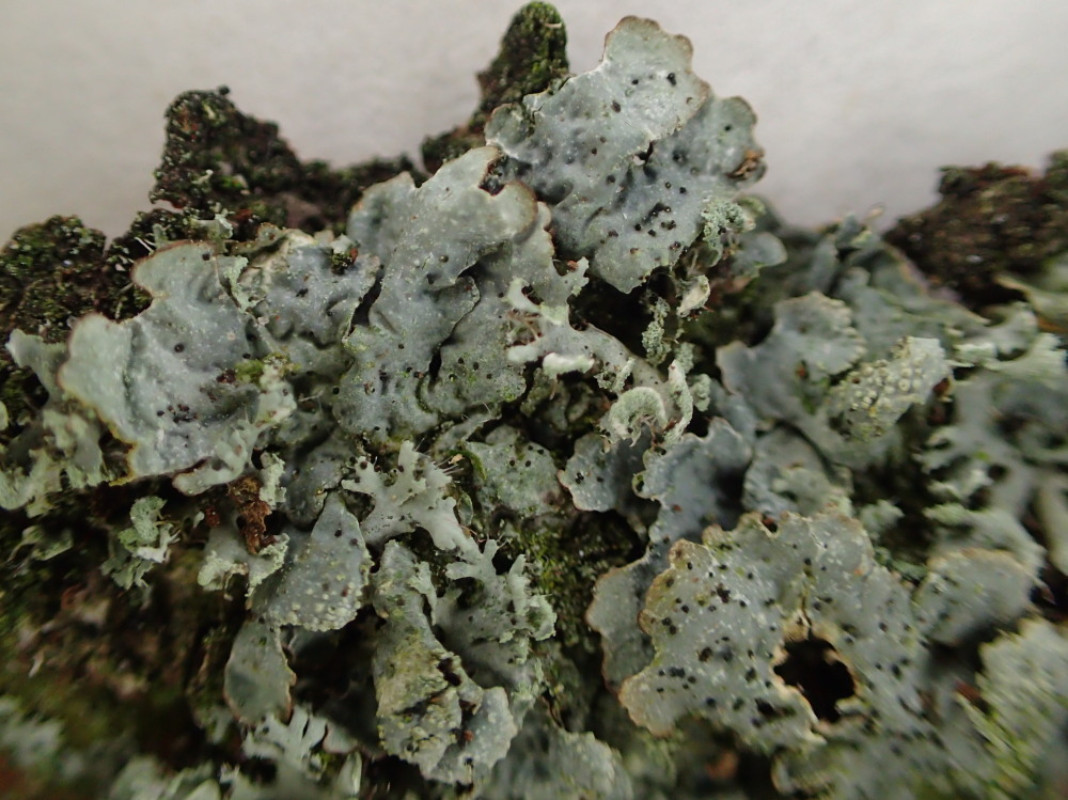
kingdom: Fungi
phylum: Ascomycota
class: Lecanoromycetes
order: Lecanorales
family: Parmeliaceae
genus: Parmelia
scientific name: Parmelia sulcata
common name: rynket skållav
